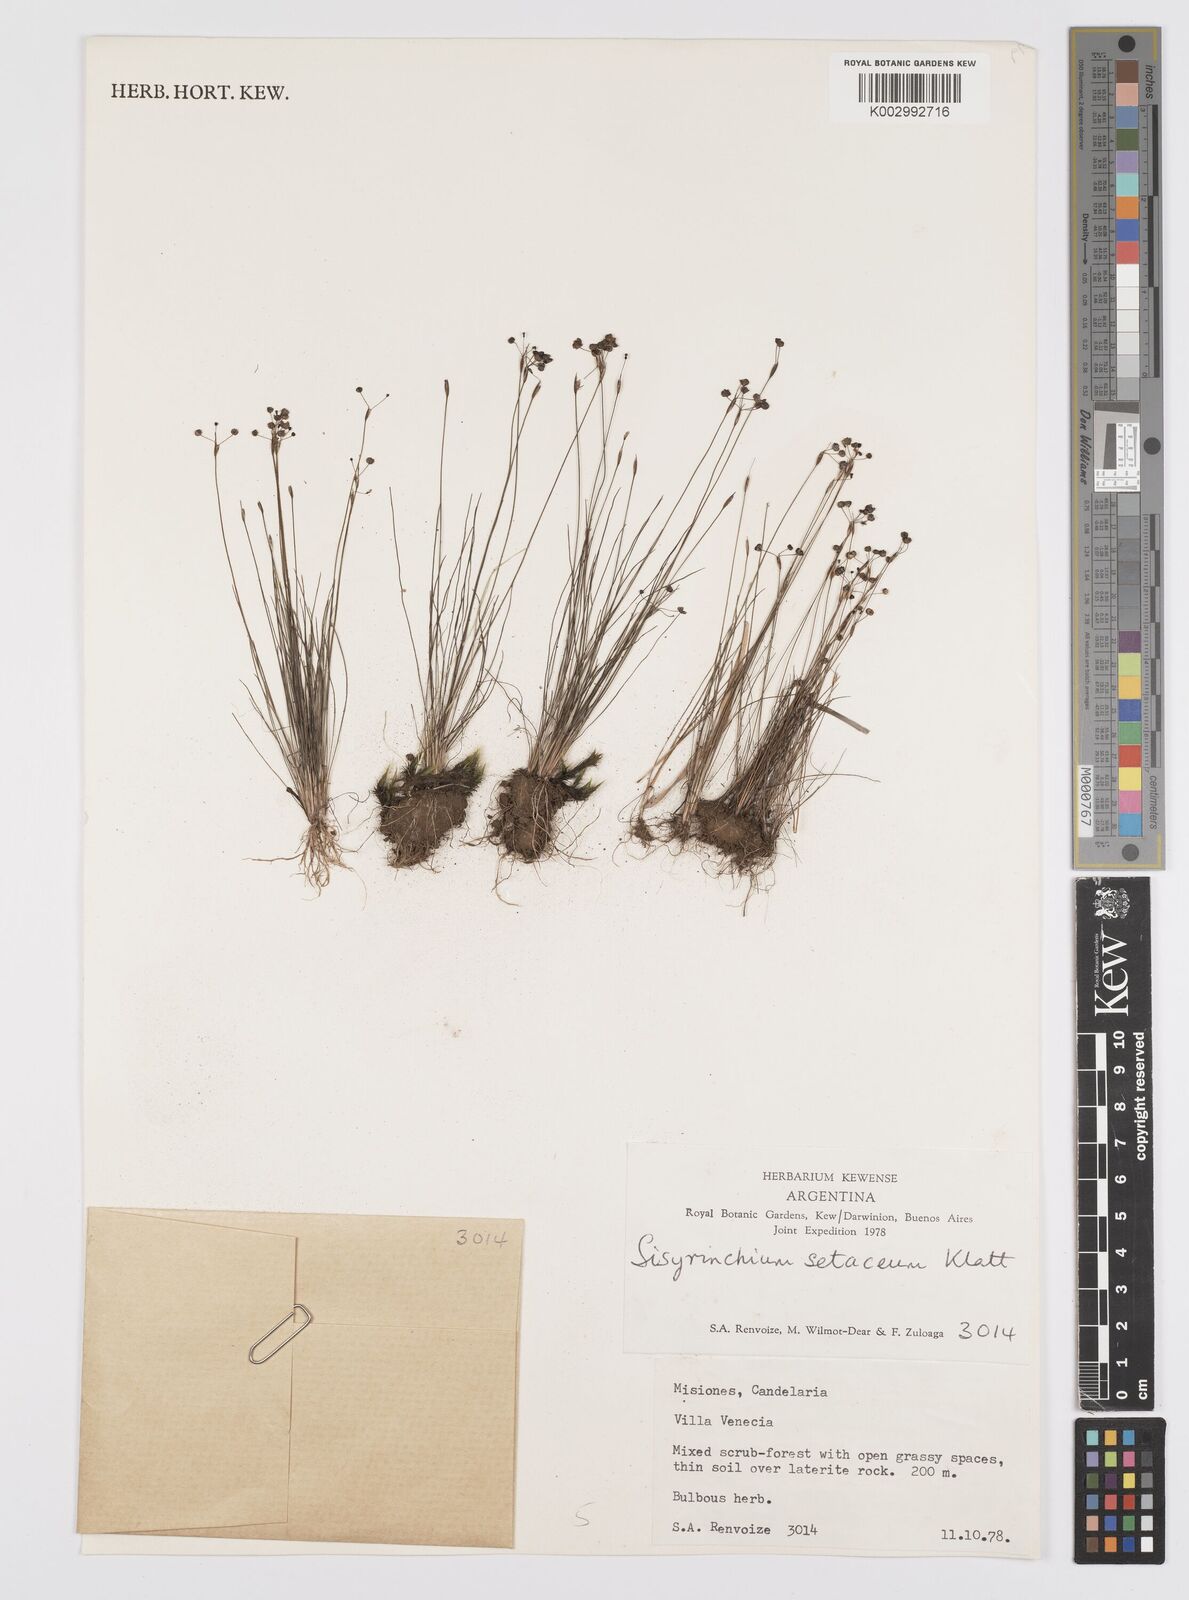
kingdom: Plantae
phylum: Tracheophyta
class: Liliopsida
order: Asparagales
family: Iridaceae
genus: Sisyrinchium
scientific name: Sisyrinchium setaceum
